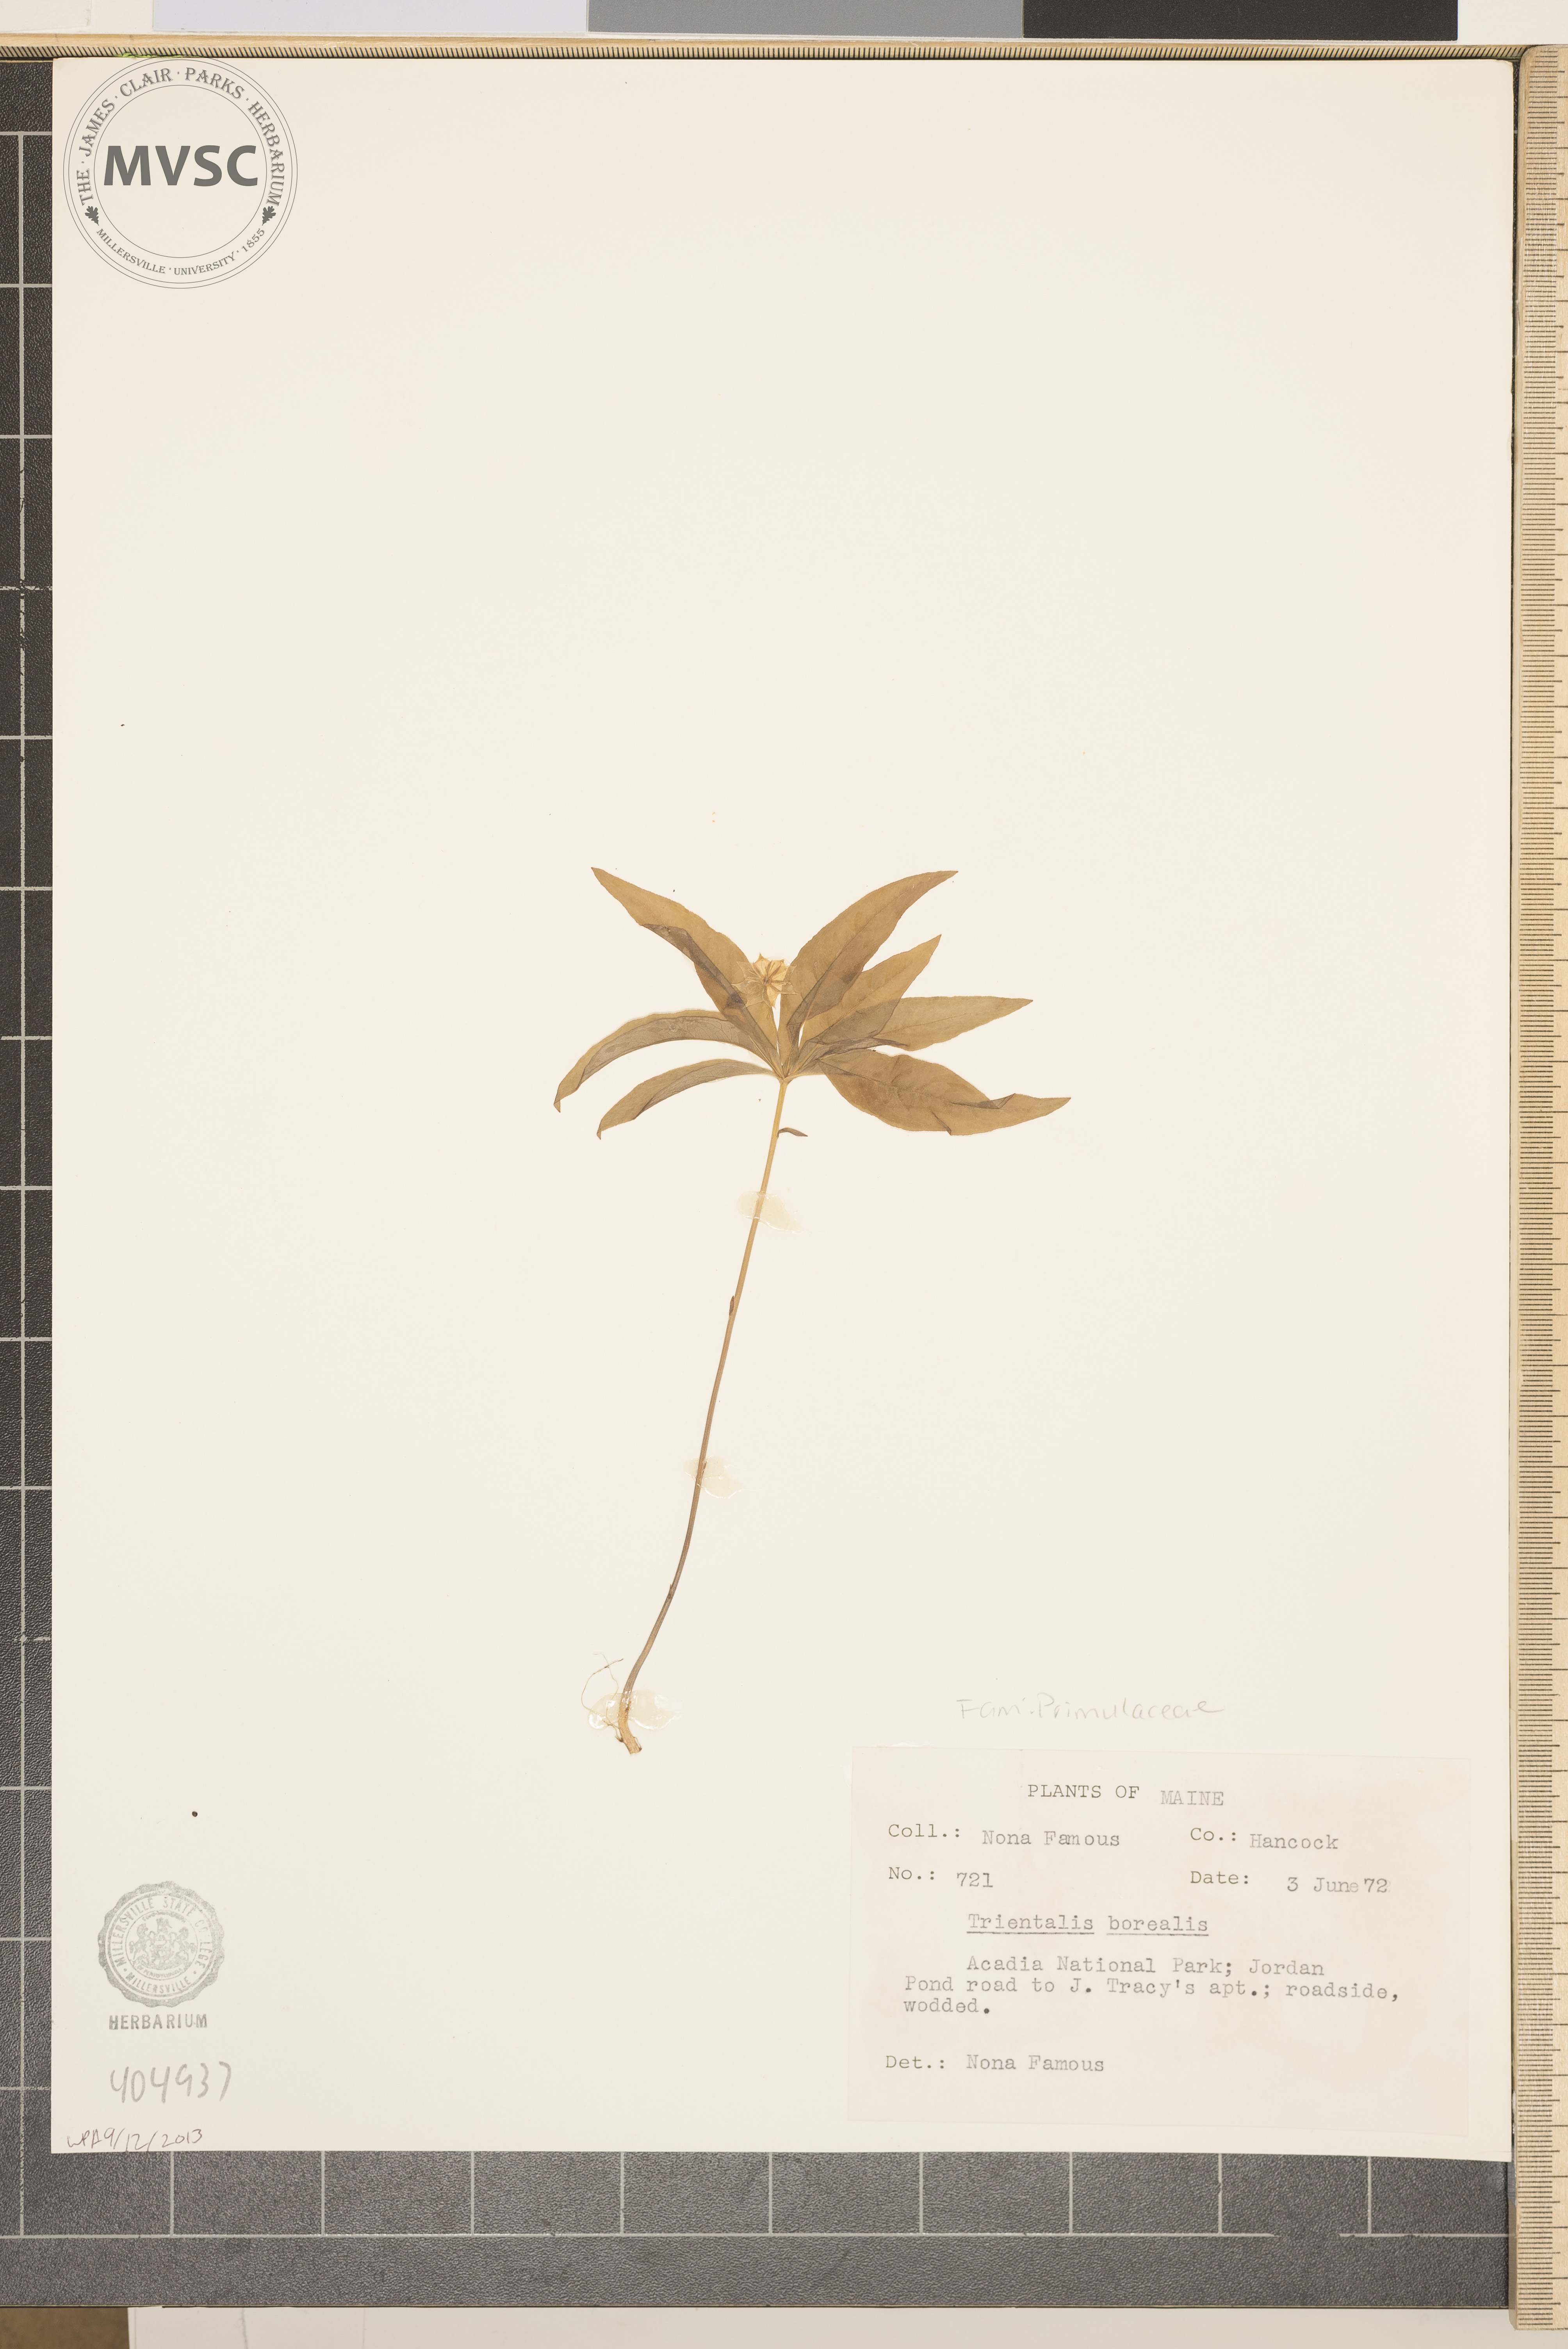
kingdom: Plantae
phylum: Tracheophyta
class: Magnoliopsida
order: Ericales
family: Primulaceae
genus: Lysimachia
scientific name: Lysimachia borealis
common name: American starflower
